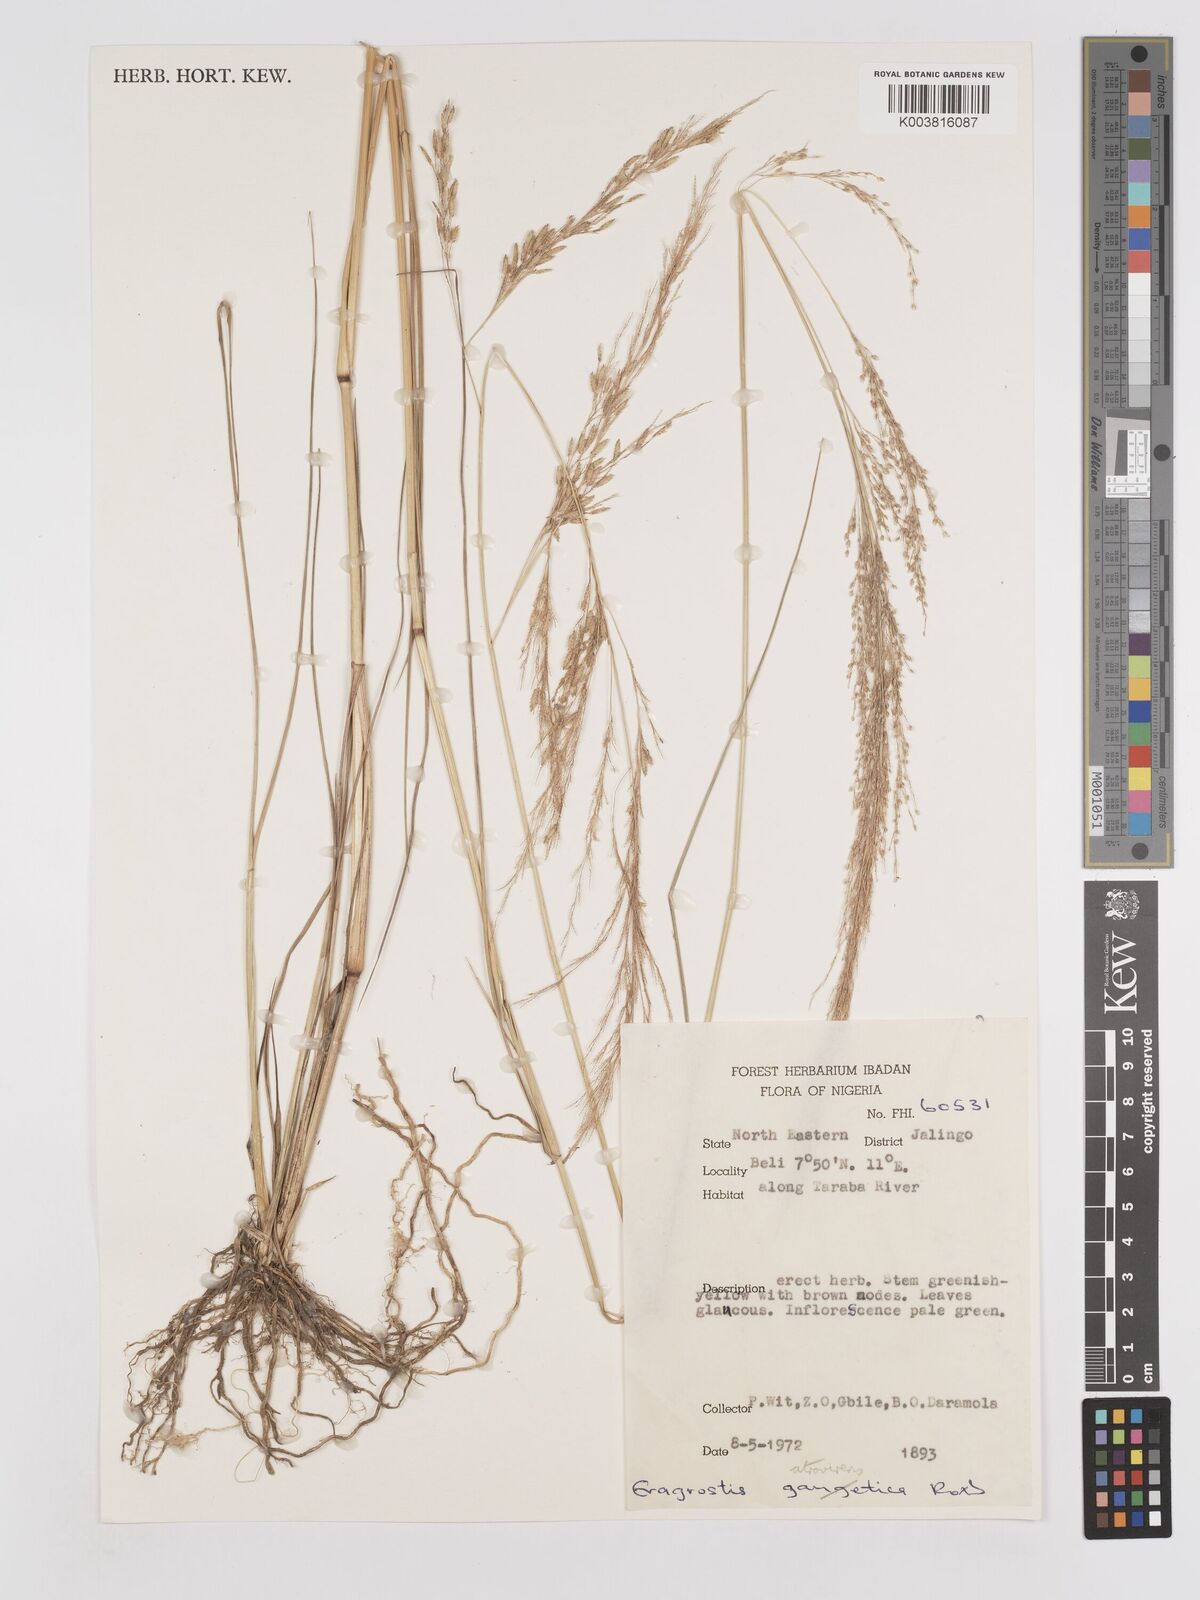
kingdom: Plantae
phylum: Tracheophyta
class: Liliopsida
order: Poales
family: Poaceae
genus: Eragrostis
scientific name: Eragrostis atrovirens
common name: Thalia lovegrass
